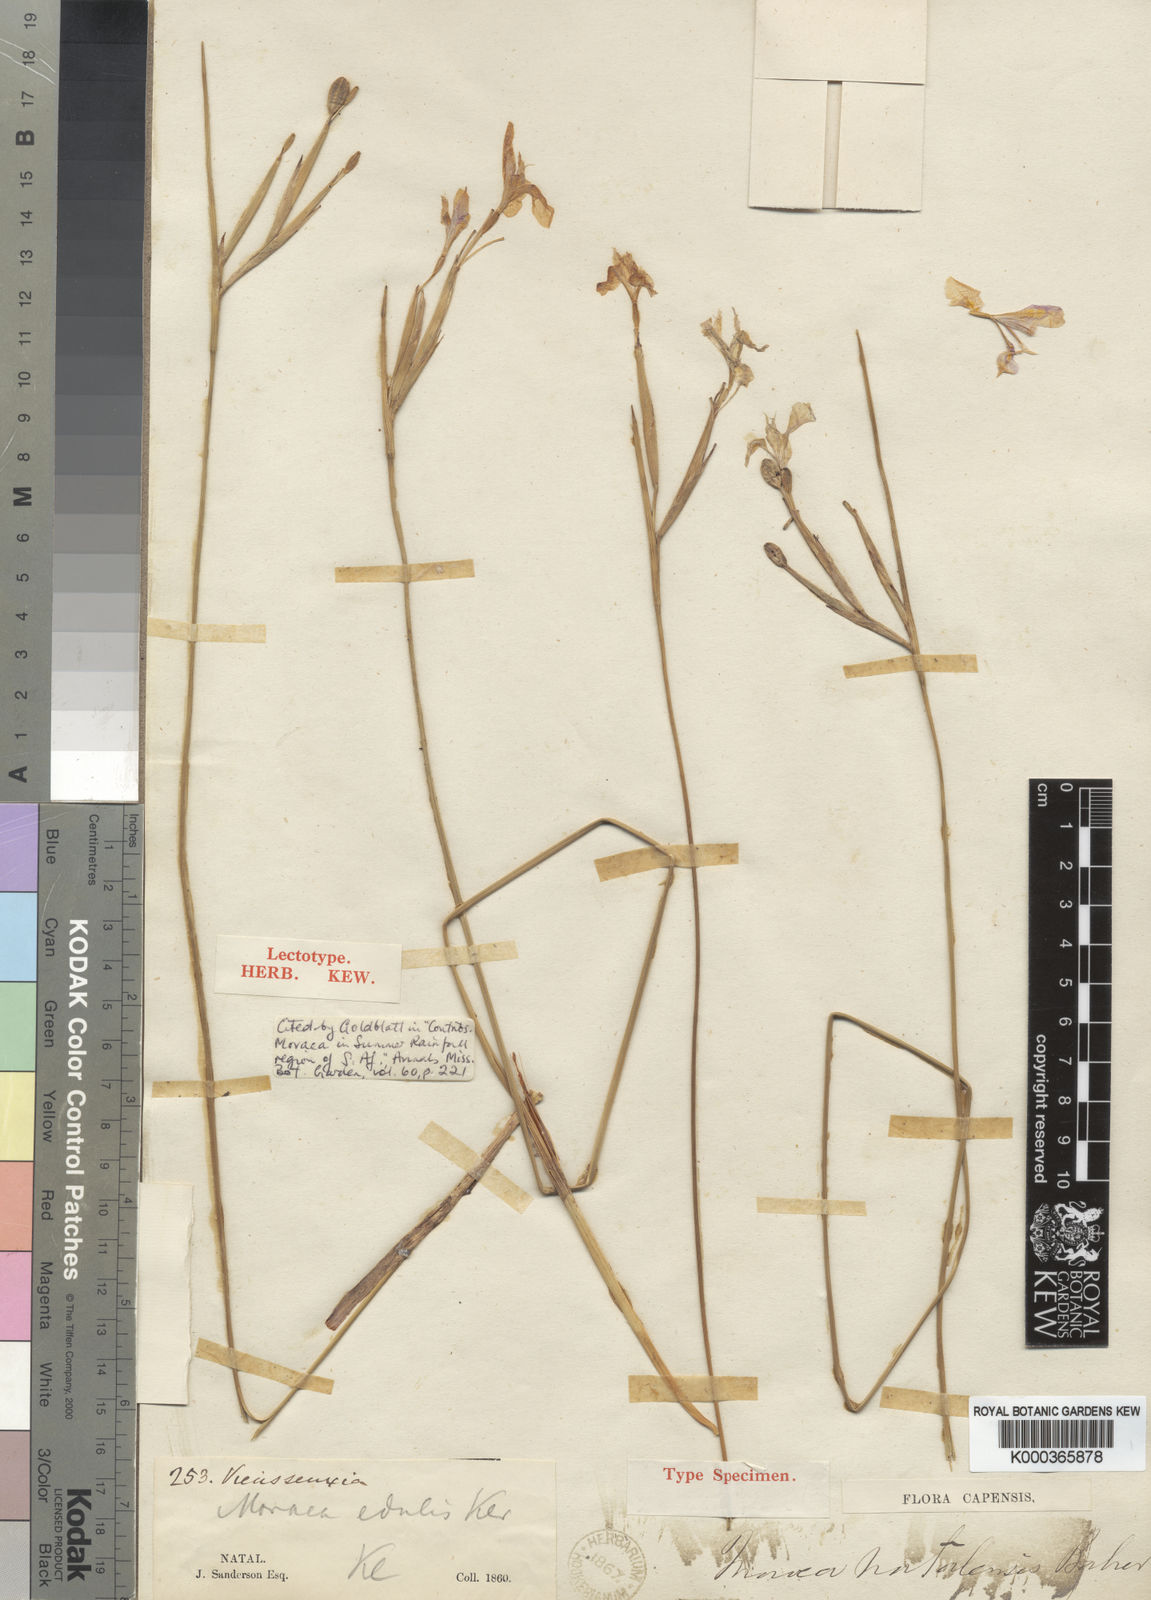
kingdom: Plantae
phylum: Tracheophyta
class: Liliopsida
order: Asparagales
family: Iridaceae
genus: Moraea
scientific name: Moraea natalensis
